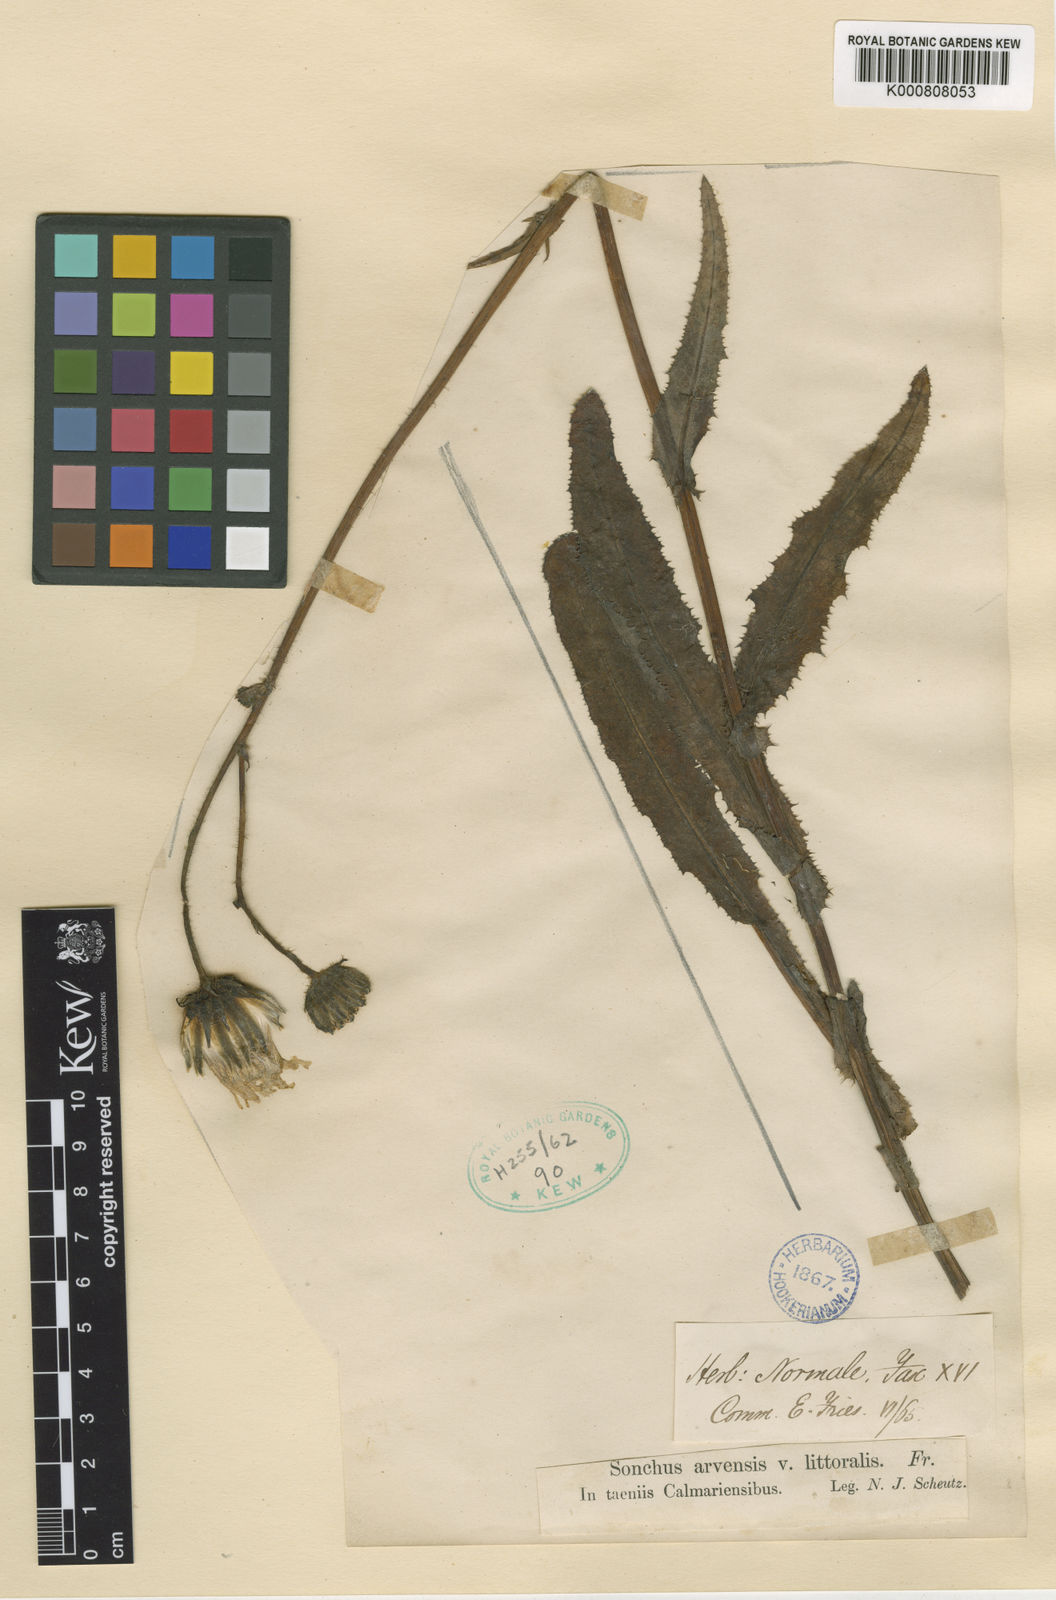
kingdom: Plantae
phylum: Tracheophyta
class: Magnoliopsida
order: Asterales
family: Asteraceae
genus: Sonchus
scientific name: Sonchus arvensis
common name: Perennial sow-thistle
